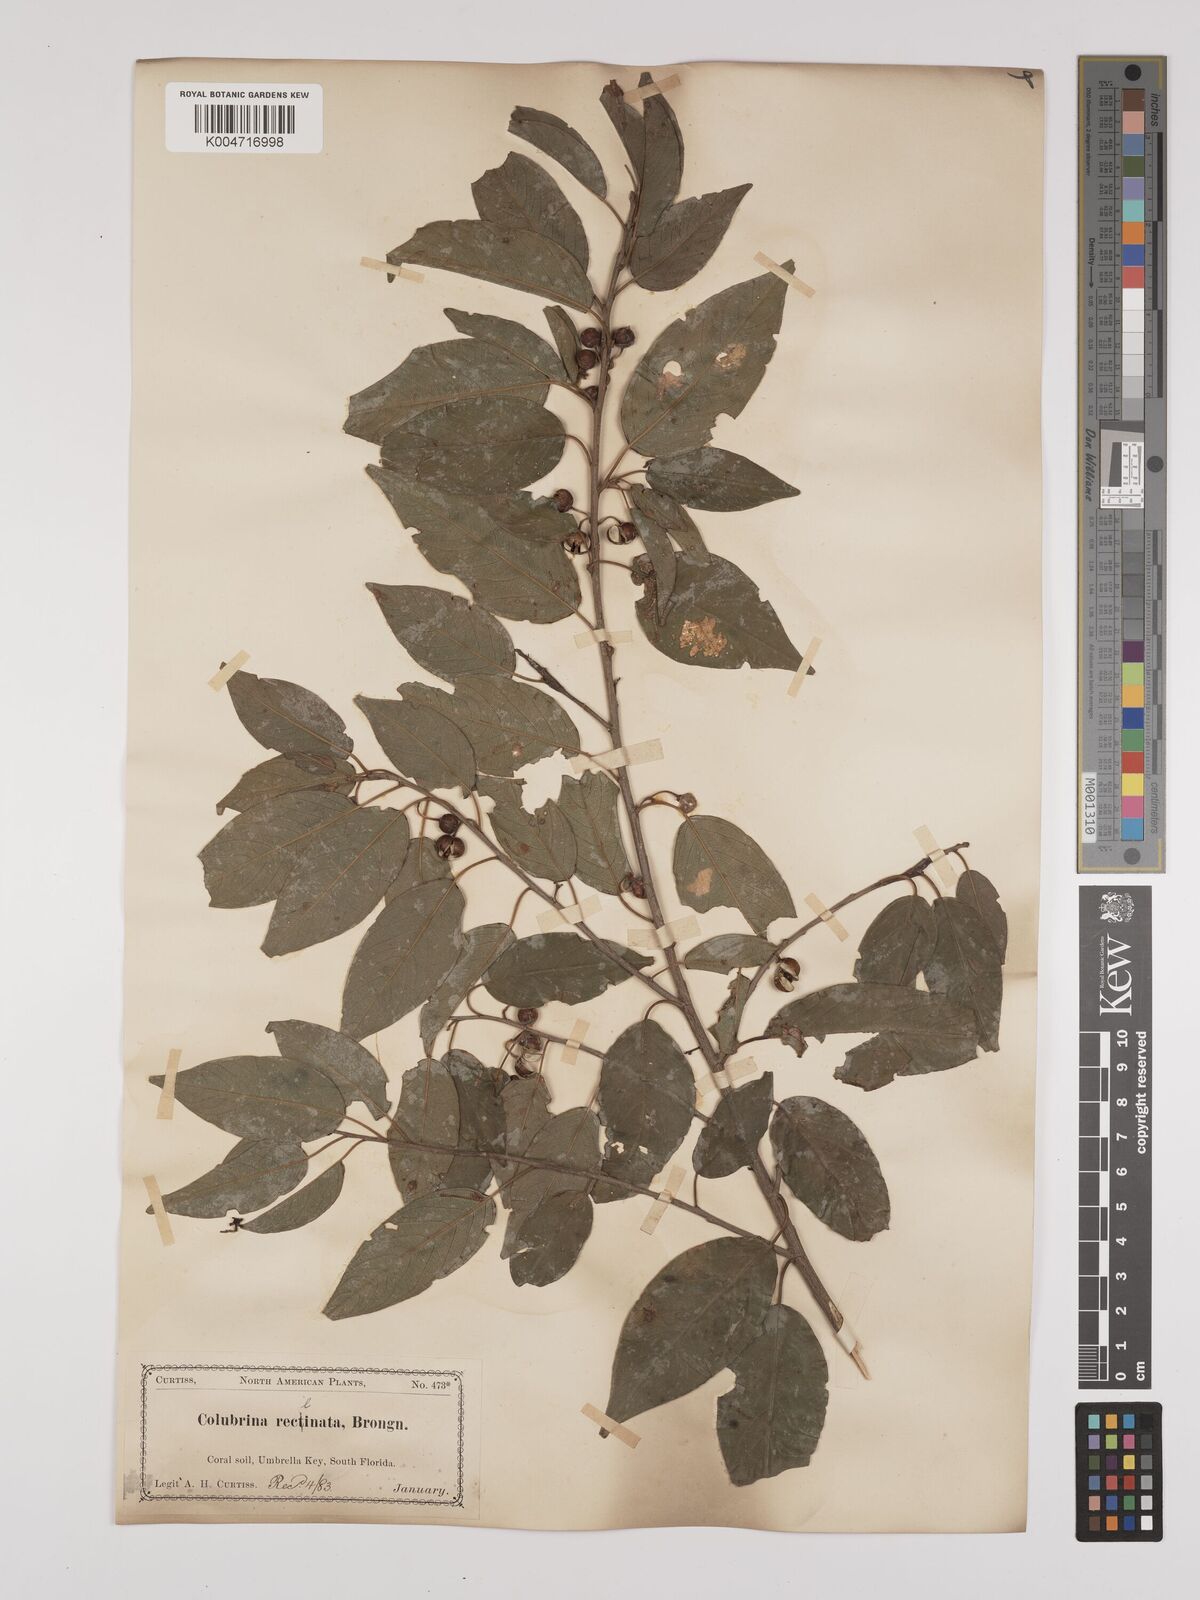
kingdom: Plantae
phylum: Tracheophyta
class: Magnoliopsida
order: Rosales
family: Rhamnaceae
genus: Colubrina
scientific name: Colubrina elliptica
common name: Soldierwood
